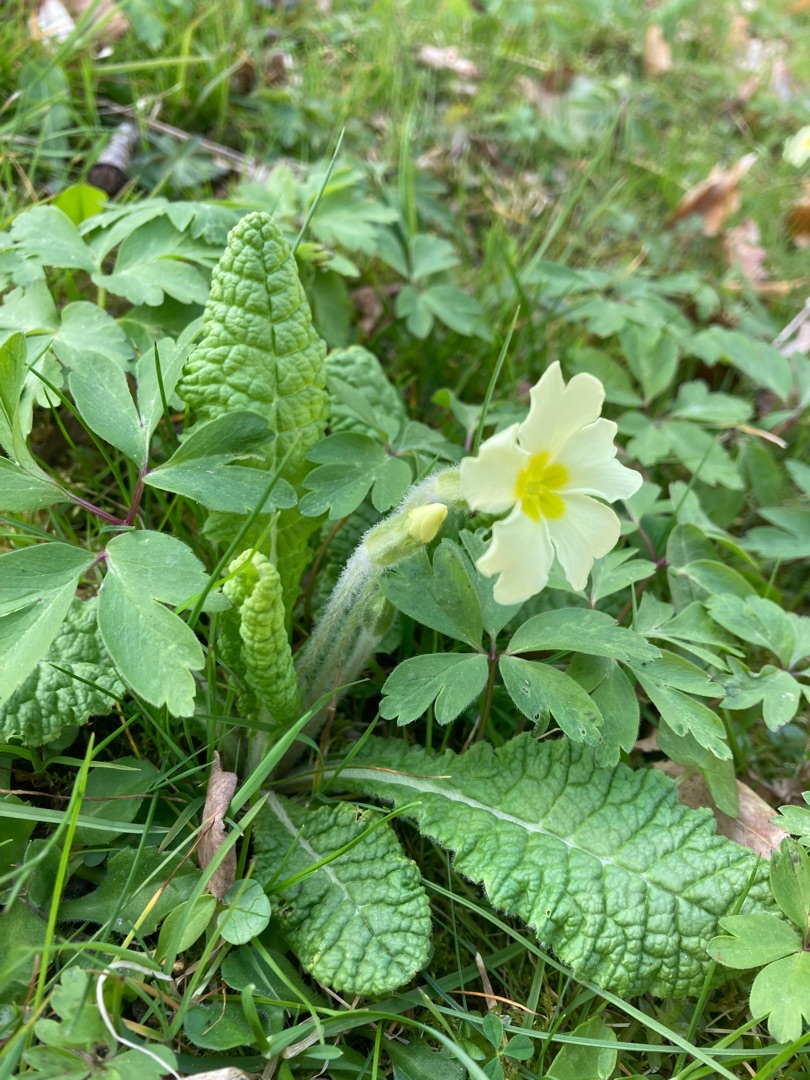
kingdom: Plantae
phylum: Tracheophyta
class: Magnoliopsida
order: Ericales
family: Primulaceae
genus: Primula
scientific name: Primula vulgaris
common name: Storblomstret kodriver
